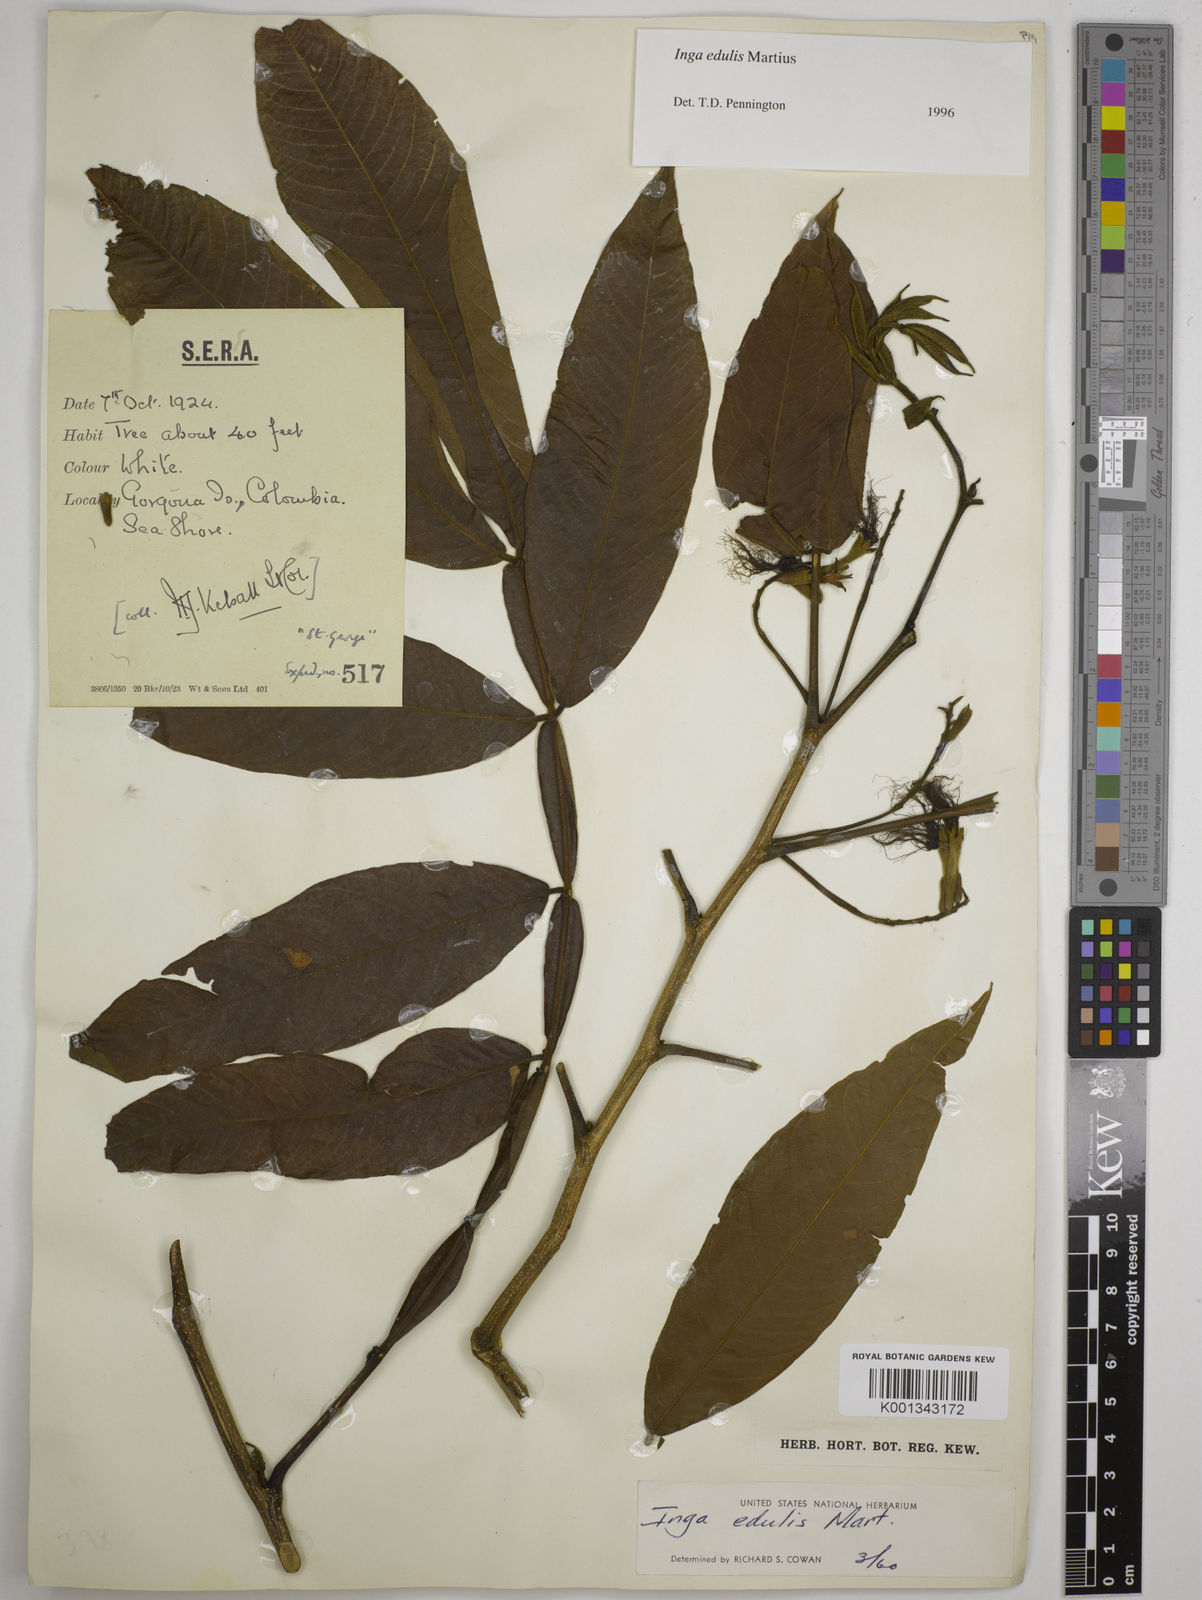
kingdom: Plantae
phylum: Tracheophyta
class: Magnoliopsida
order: Fabales
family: Fabaceae
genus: Inga
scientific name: Inga edulis
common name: Ice cream bean
